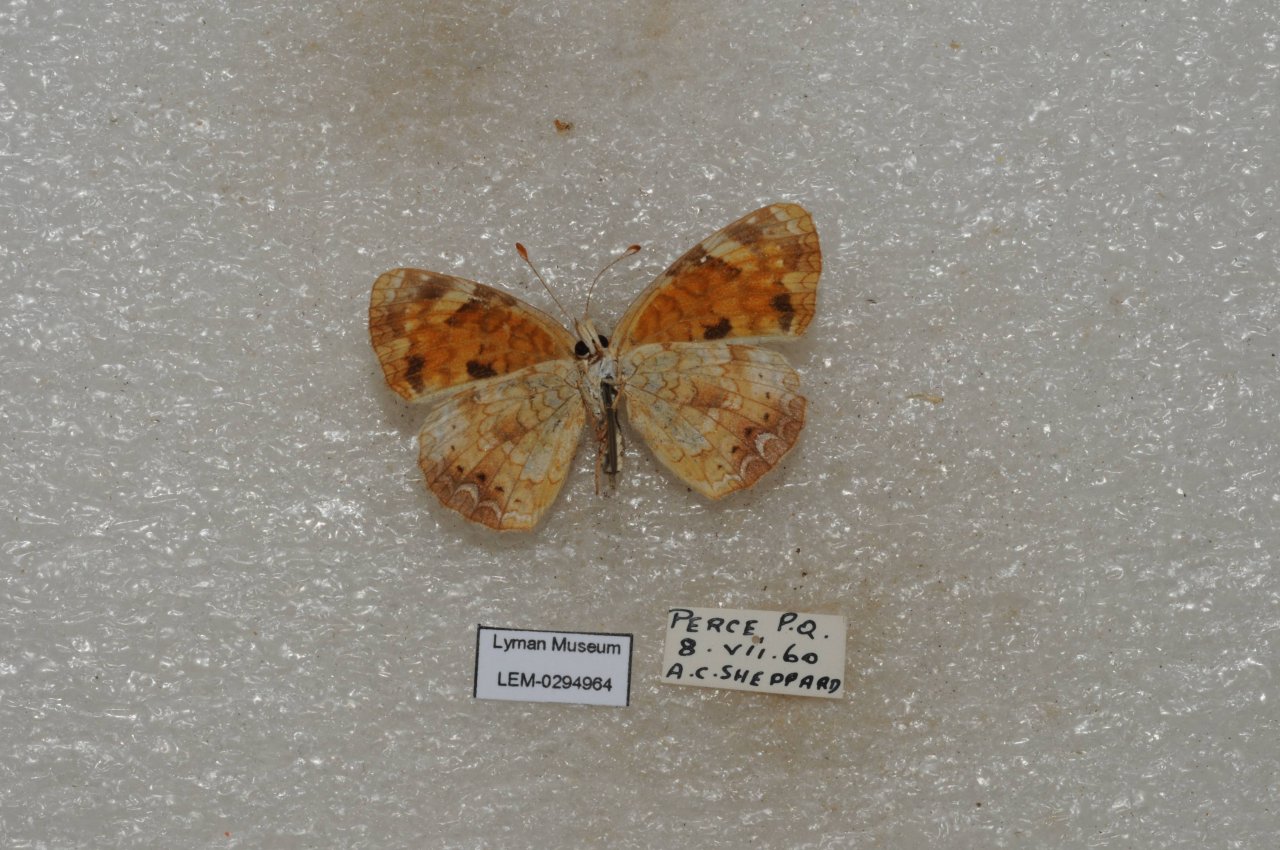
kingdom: Animalia
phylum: Arthropoda
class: Insecta
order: Lepidoptera
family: Nymphalidae
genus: Phyciodes
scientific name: Phyciodes tharos
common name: Northern Crescent
